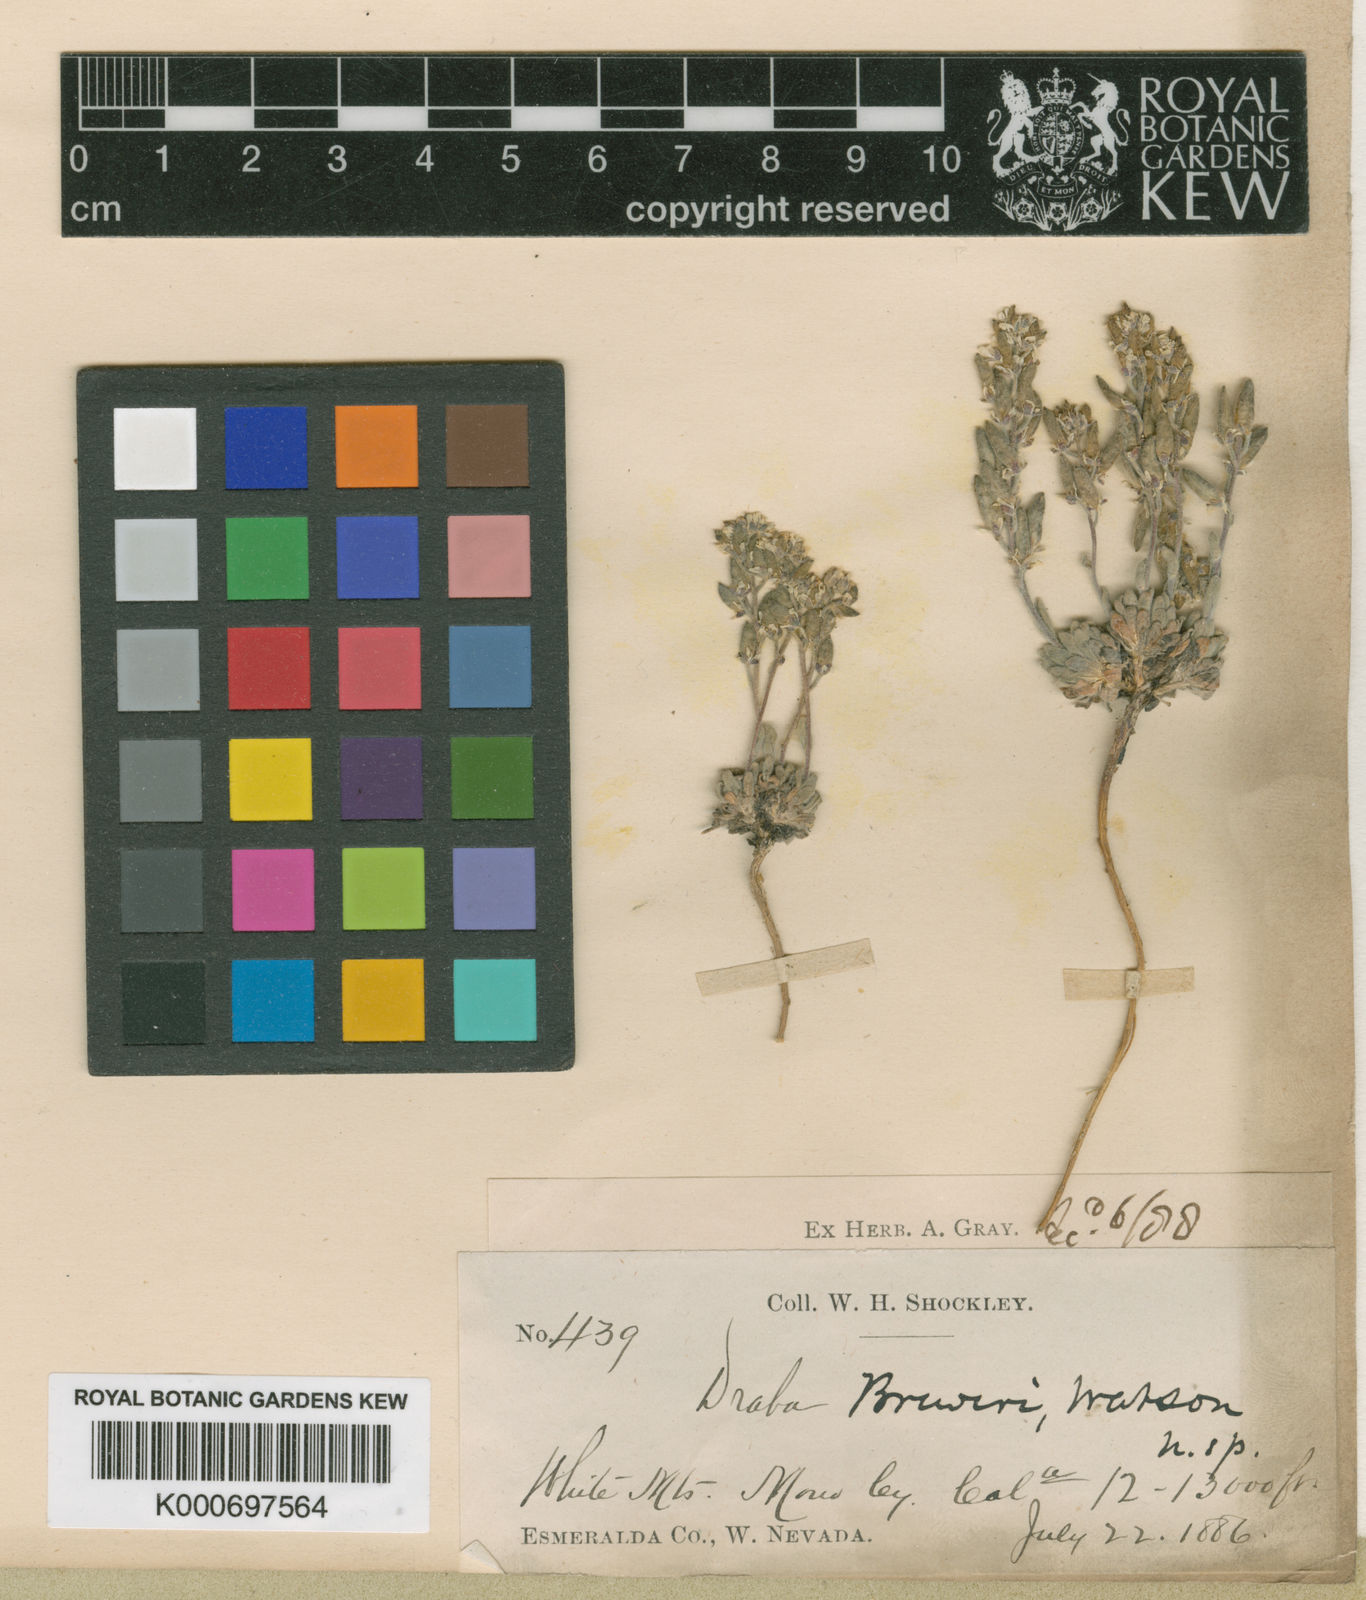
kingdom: Plantae
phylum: Tracheophyta
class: Magnoliopsida
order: Brassicales
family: Brassicaceae
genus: Draba
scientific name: Draba breweri
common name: Cushion draba
